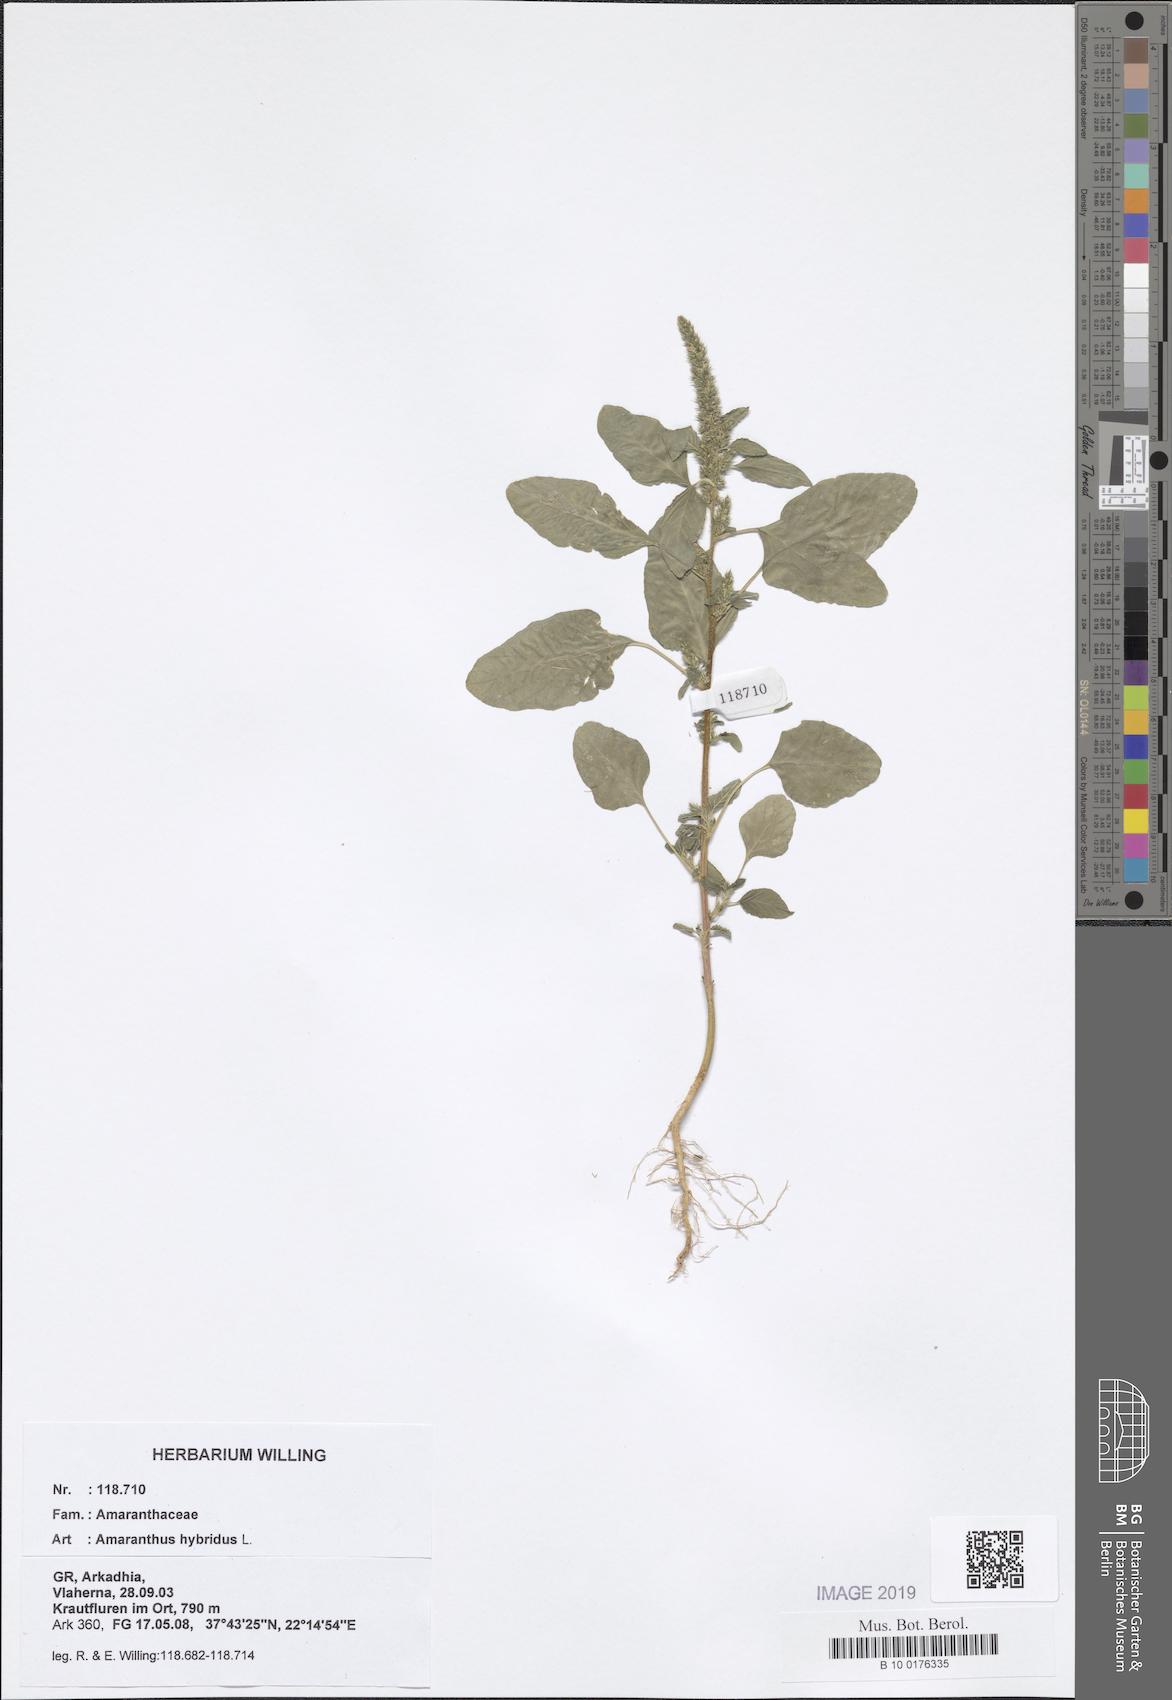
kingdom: Plantae
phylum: Tracheophyta
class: Magnoliopsida
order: Caryophyllales
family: Amaranthaceae
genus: Amaranthus
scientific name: Amaranthus hybridus
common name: Green amaranth
